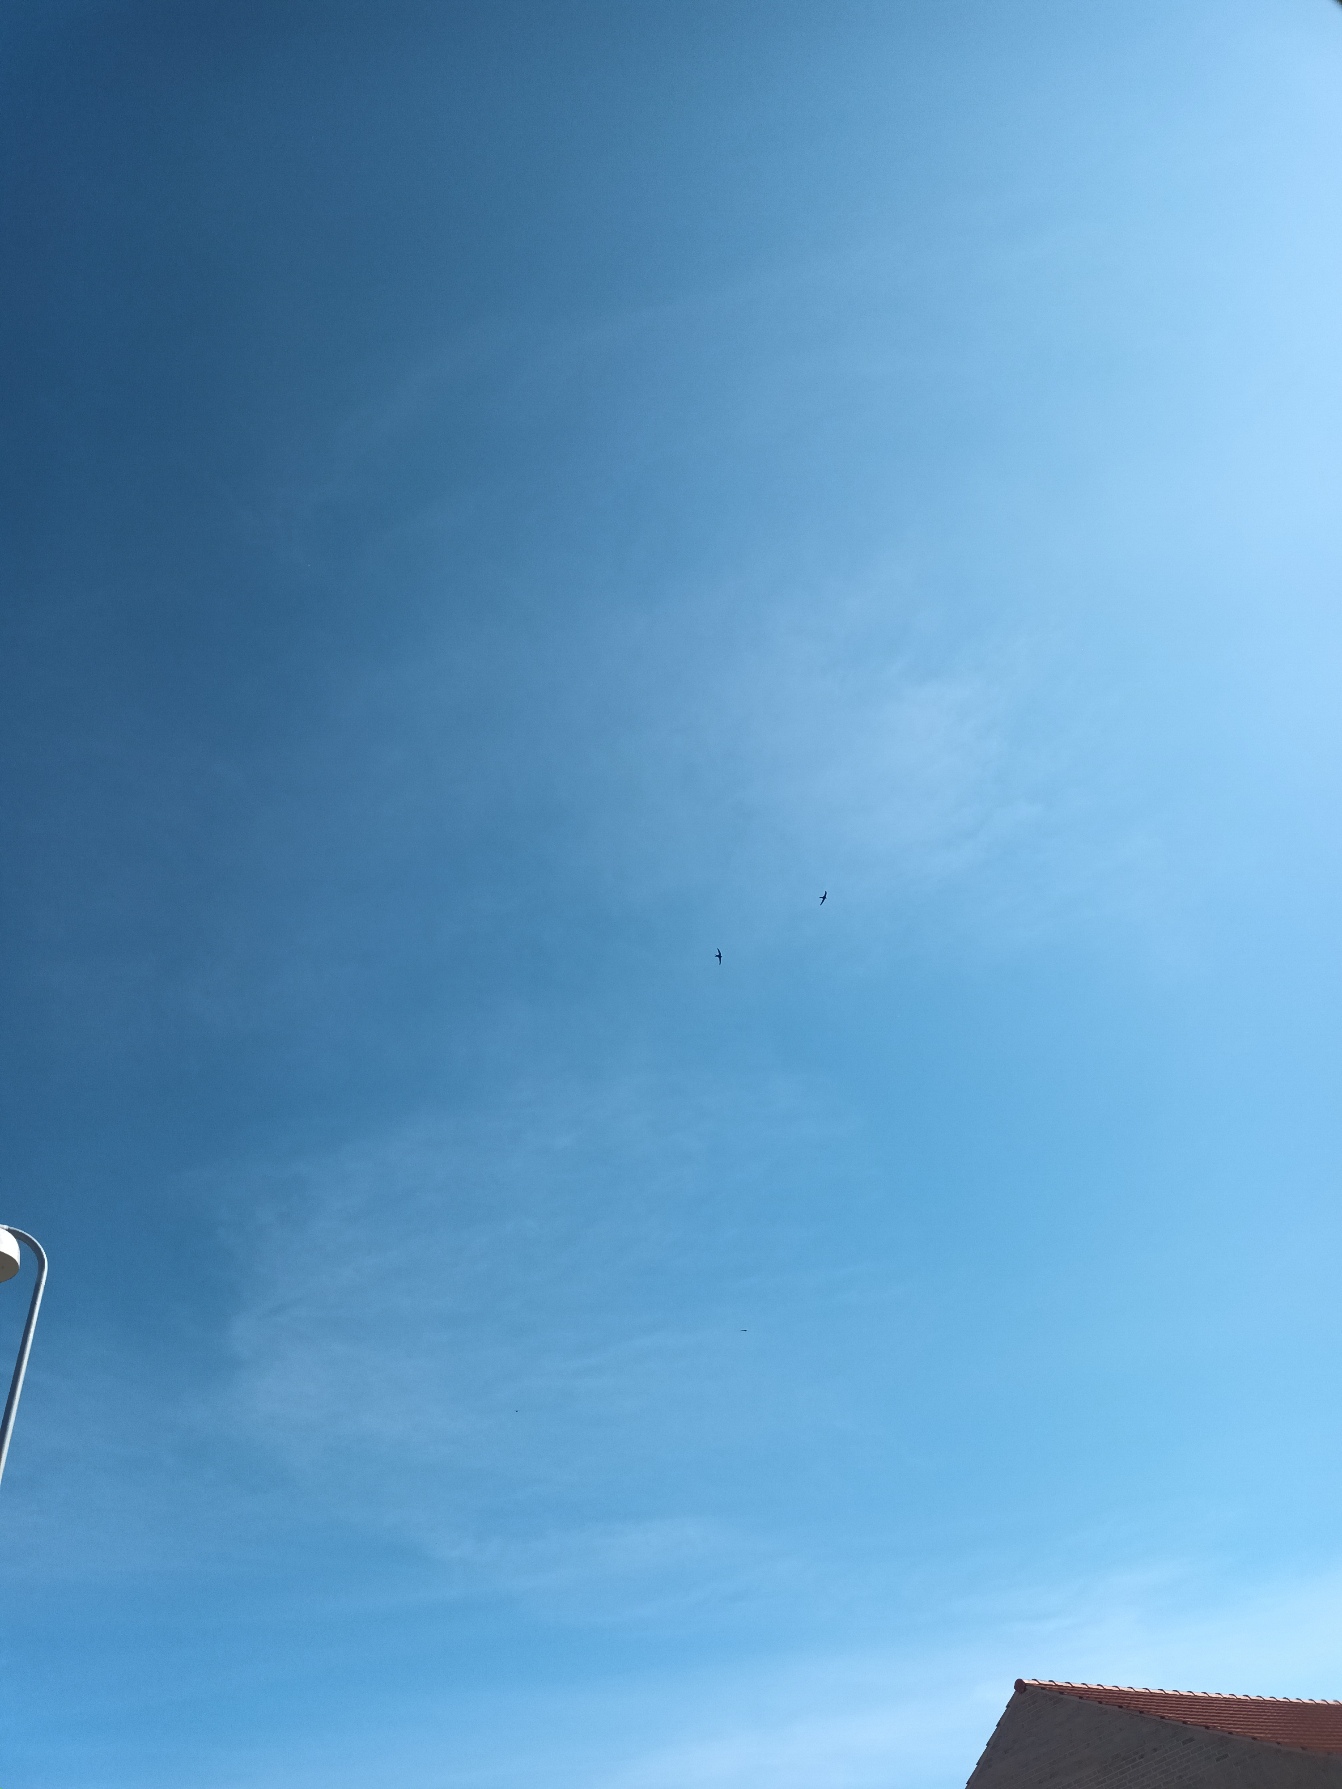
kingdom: Animalia
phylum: Chordata
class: Aves
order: Apodiformes
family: Apodidae
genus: Apus
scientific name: Apus apus
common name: Mursejler
